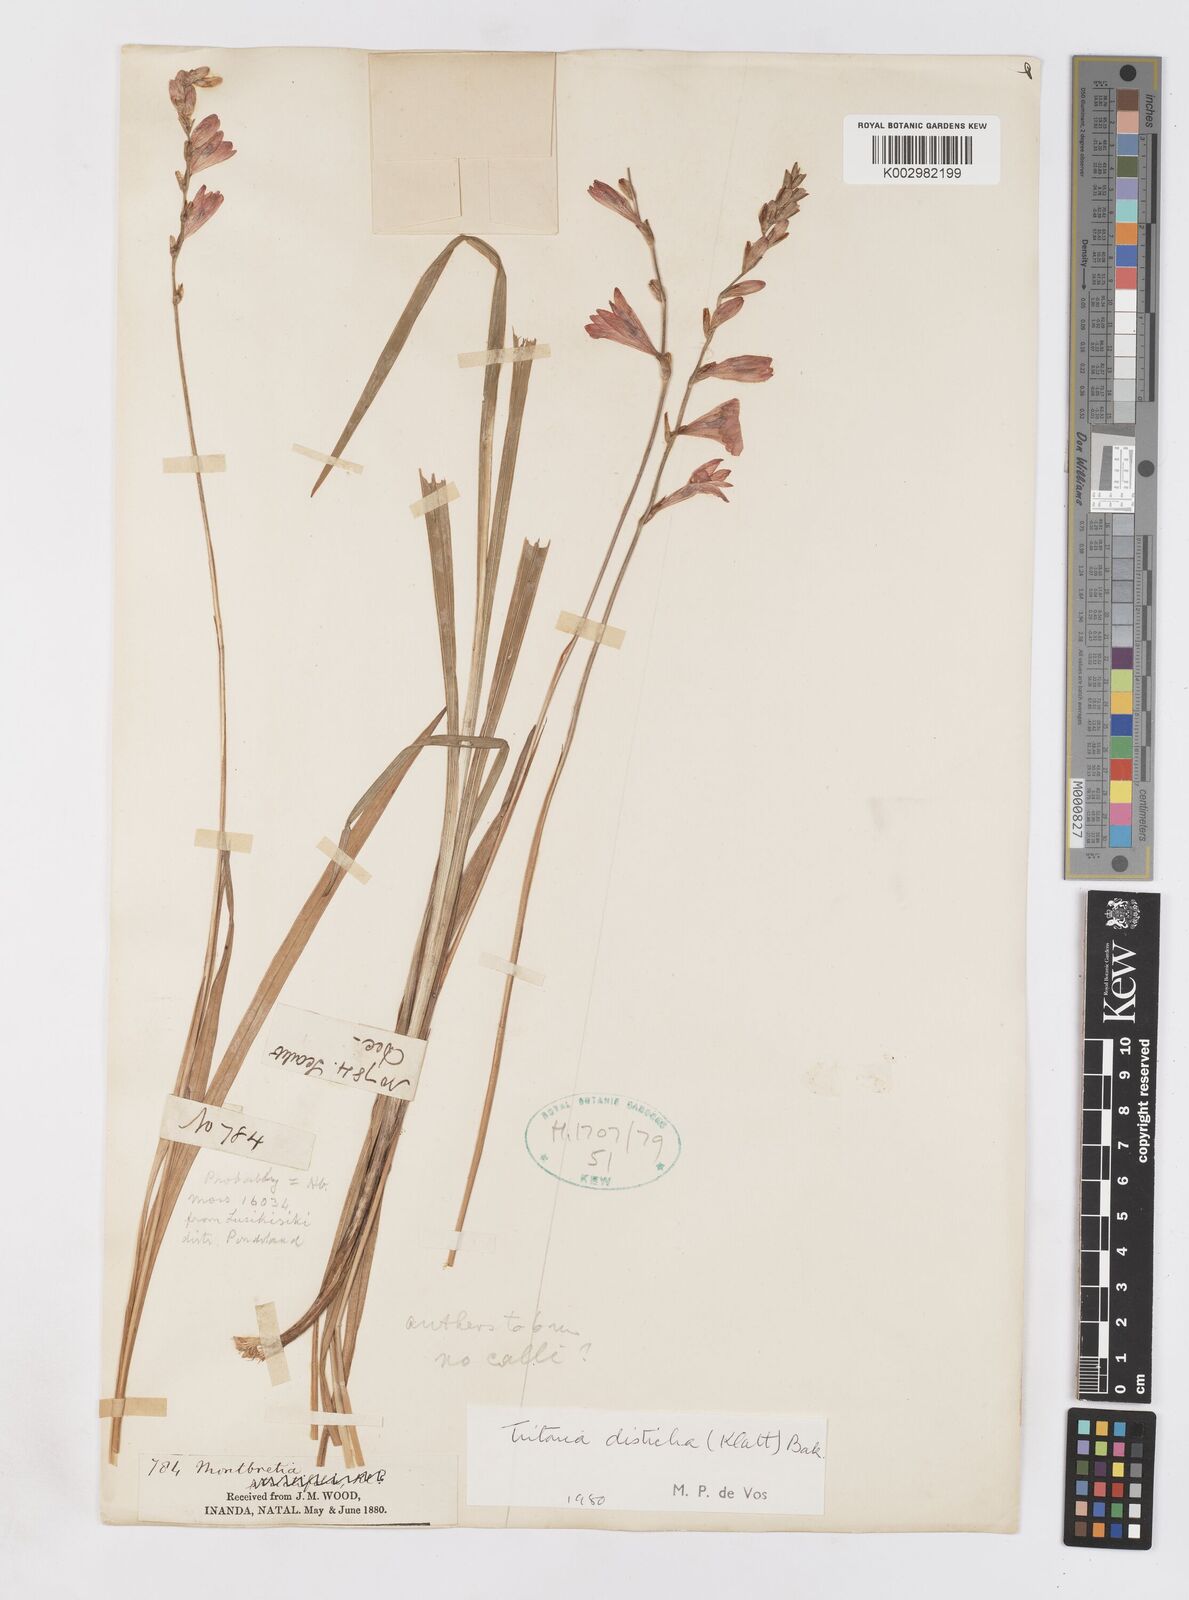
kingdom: Plantae
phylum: Tracheophyta
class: Liliopsida
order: Asparagales
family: Iridaceae
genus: Tritonia
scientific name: Tritonia disticha
